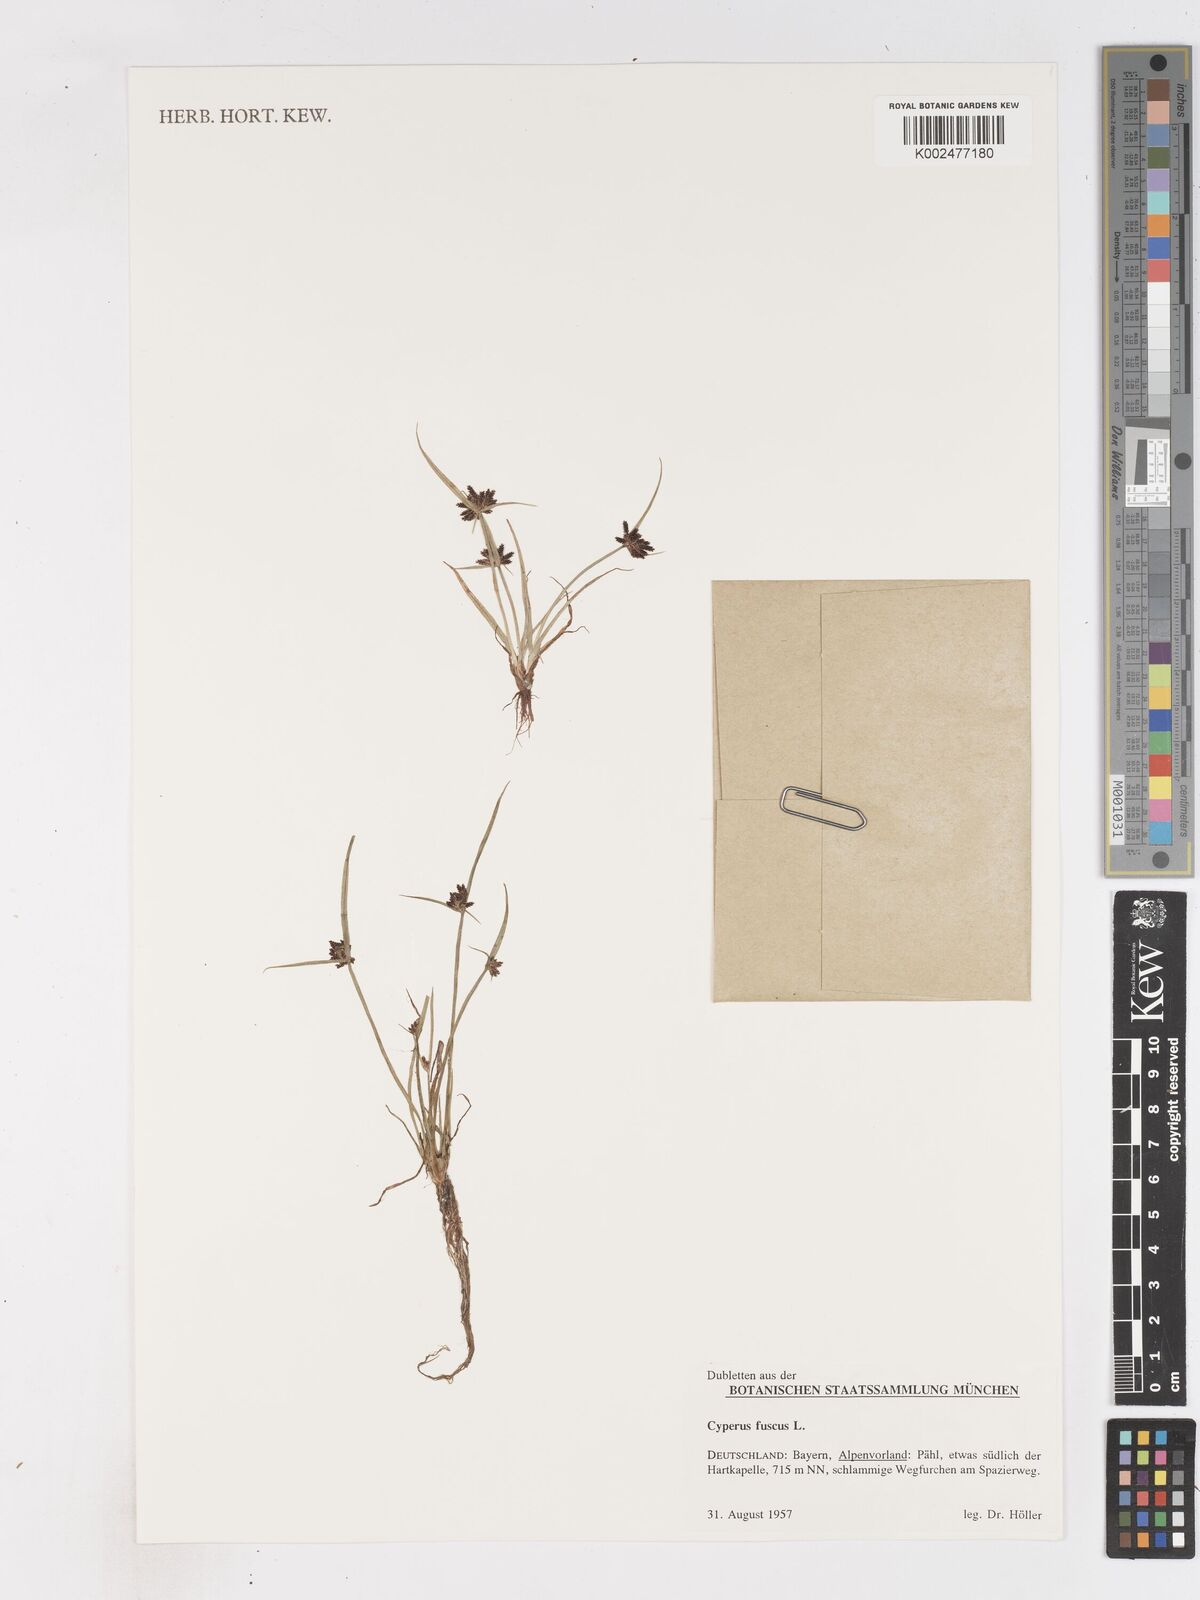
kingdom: Plantae
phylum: Tracheophyta
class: Liliopsida
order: Poales
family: Cyperaceae
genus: Cyperus
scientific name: Cyperus fuscus
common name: Brown galingale
